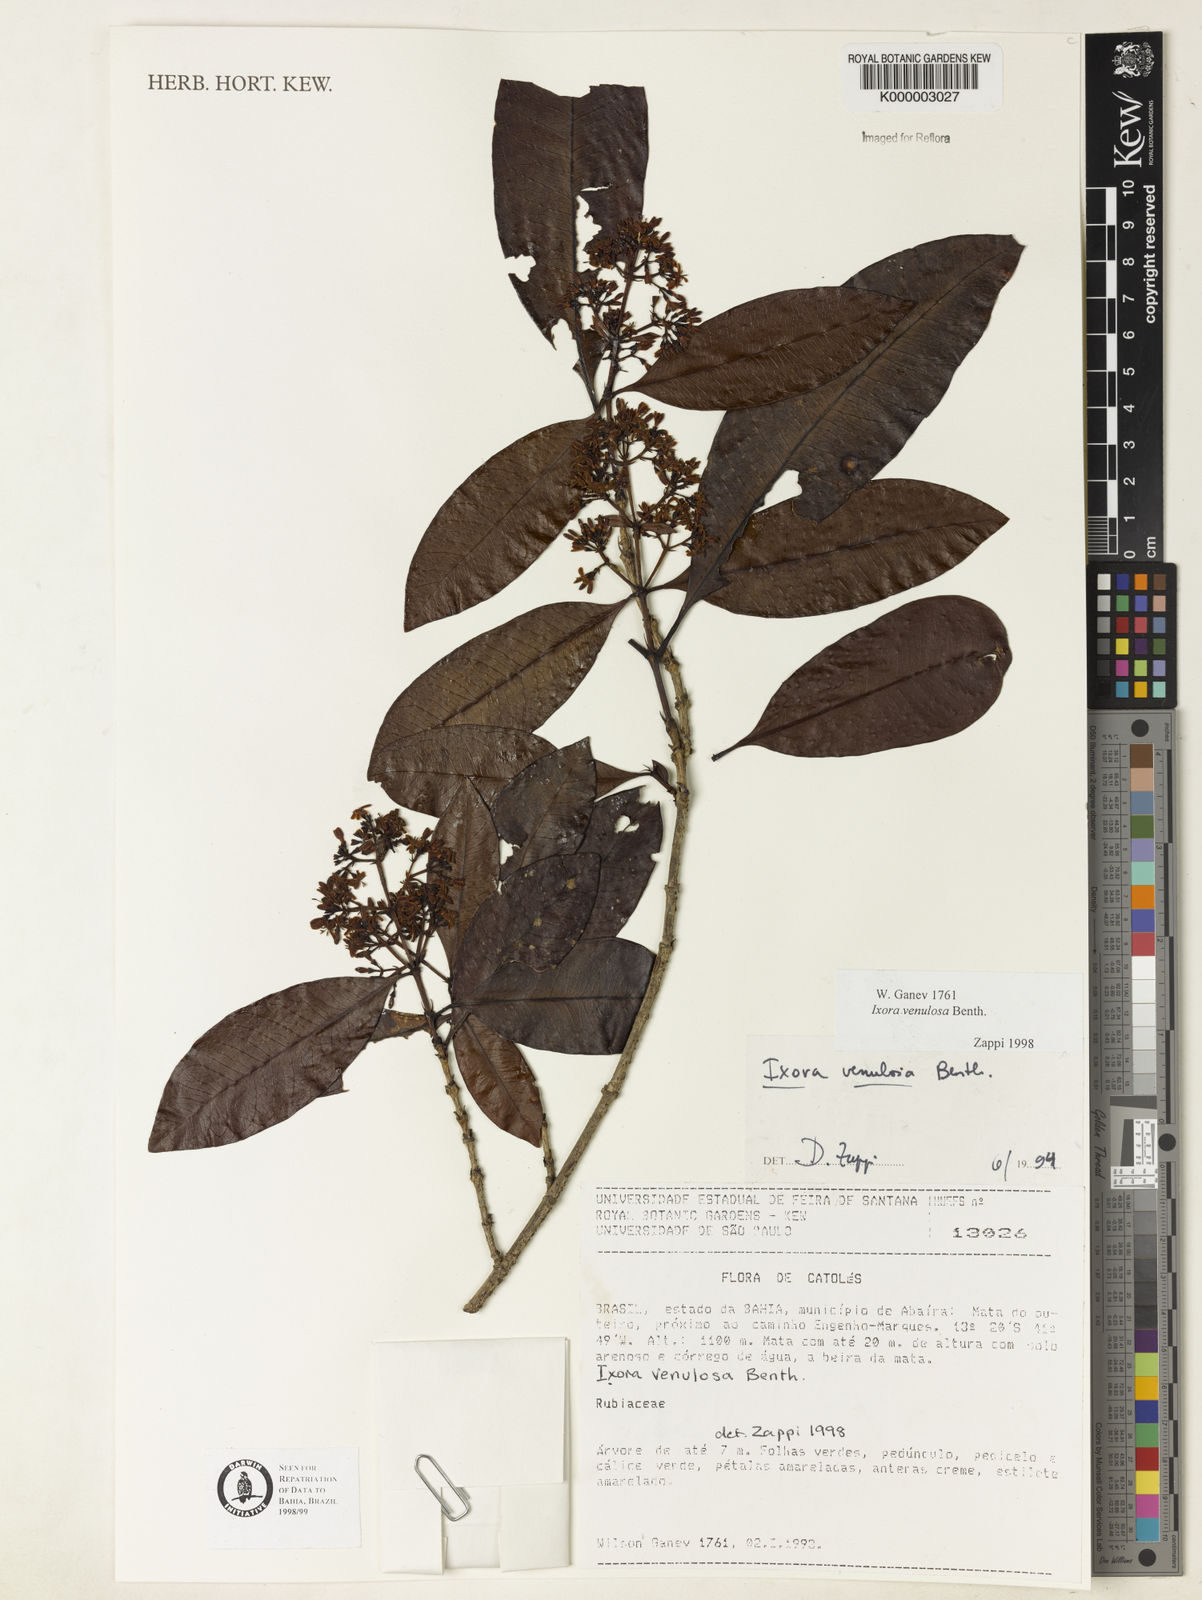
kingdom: Plantae
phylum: Tracheophyta
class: Magnoliopsida
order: Gentianales
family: Rubiaceae
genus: Ixora
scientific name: Ixora venulosa
